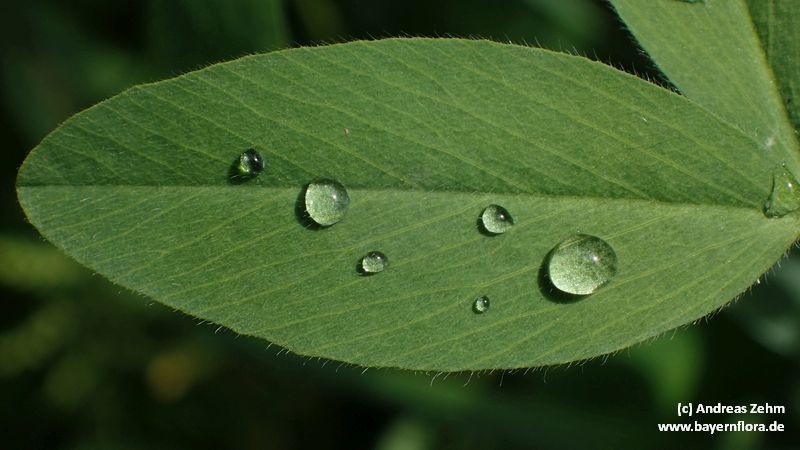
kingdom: Plantae
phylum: Tracheophyta
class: Magnoliopsida
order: Fabales
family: Fabaceae
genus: Trifolium
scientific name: Trifolium alexandrinum
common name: Egyptian clover
